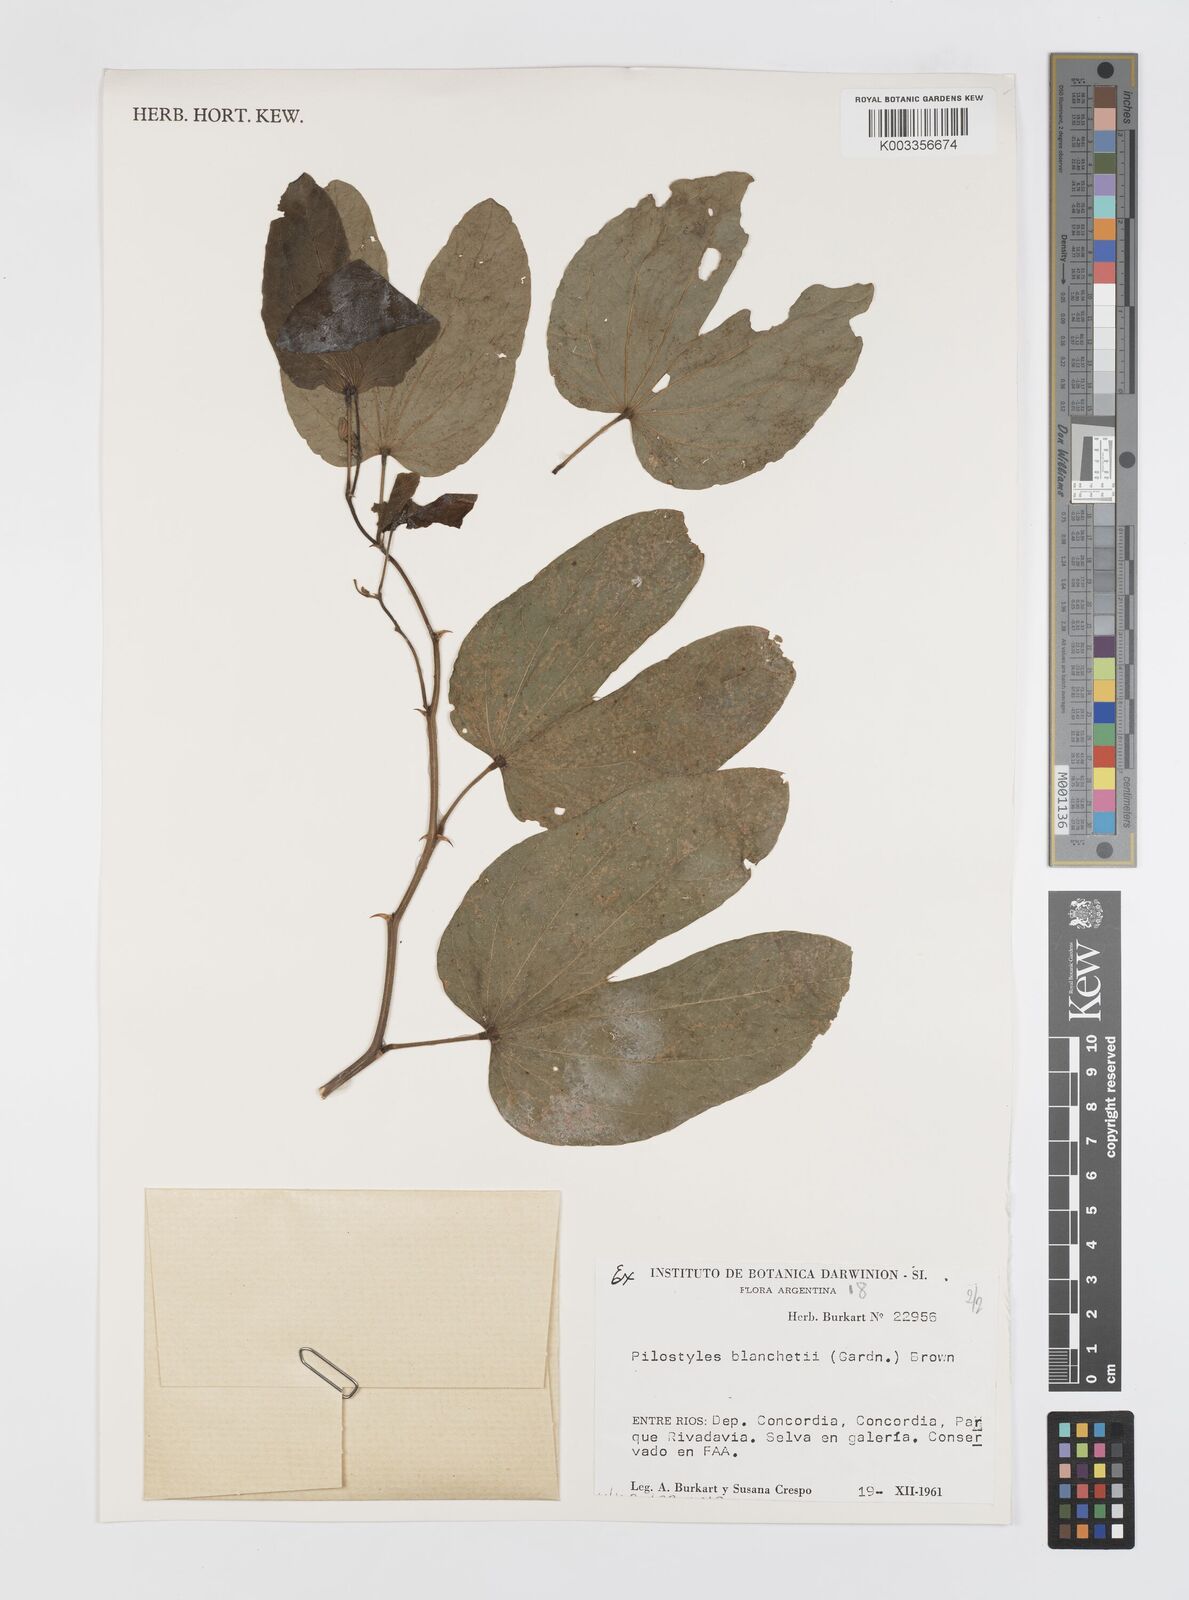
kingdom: Plantae
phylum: Tracheophyta
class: Magnoliopsida
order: Cucurbitales
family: Apodanthaceae
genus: Pilostyles
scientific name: Pilostyles blanchetii
